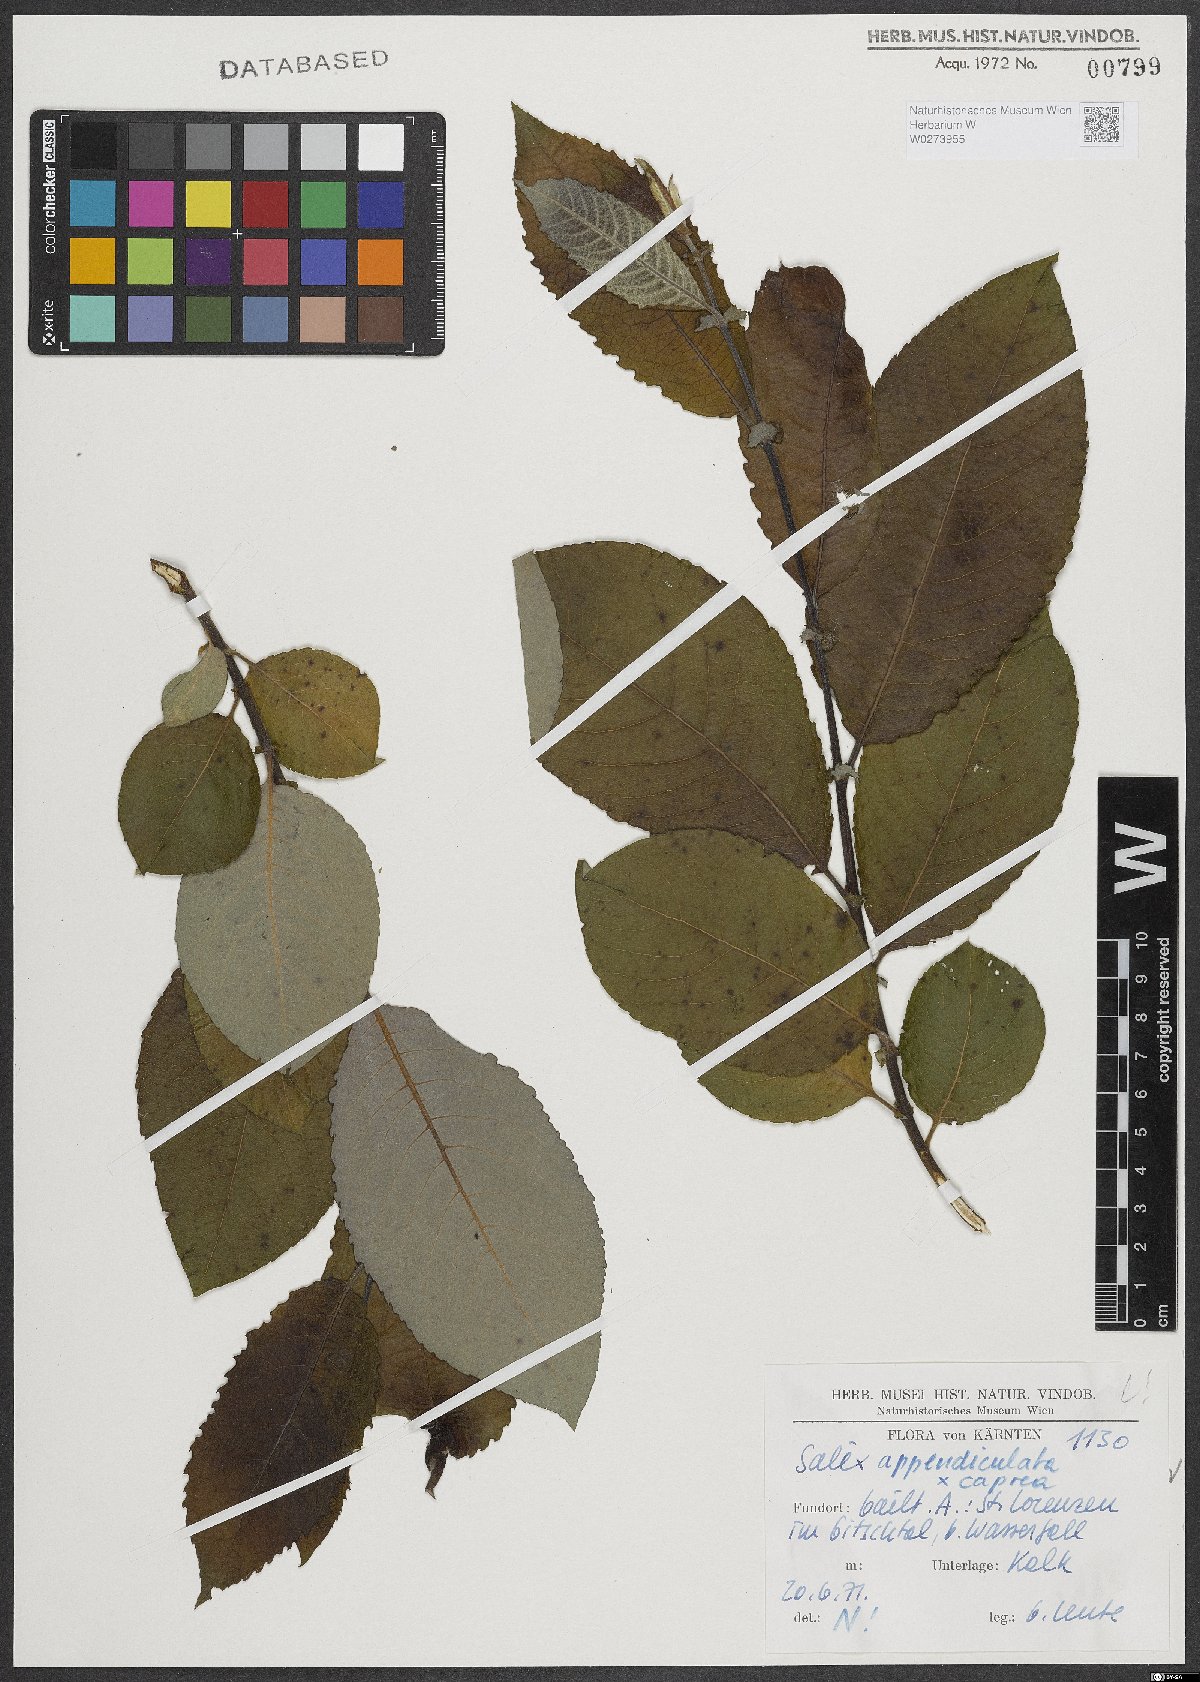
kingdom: Plantae
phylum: Tracheophyta
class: Magnoliopsida
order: Malpighiales
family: Salicaceae
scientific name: Salicaceae
